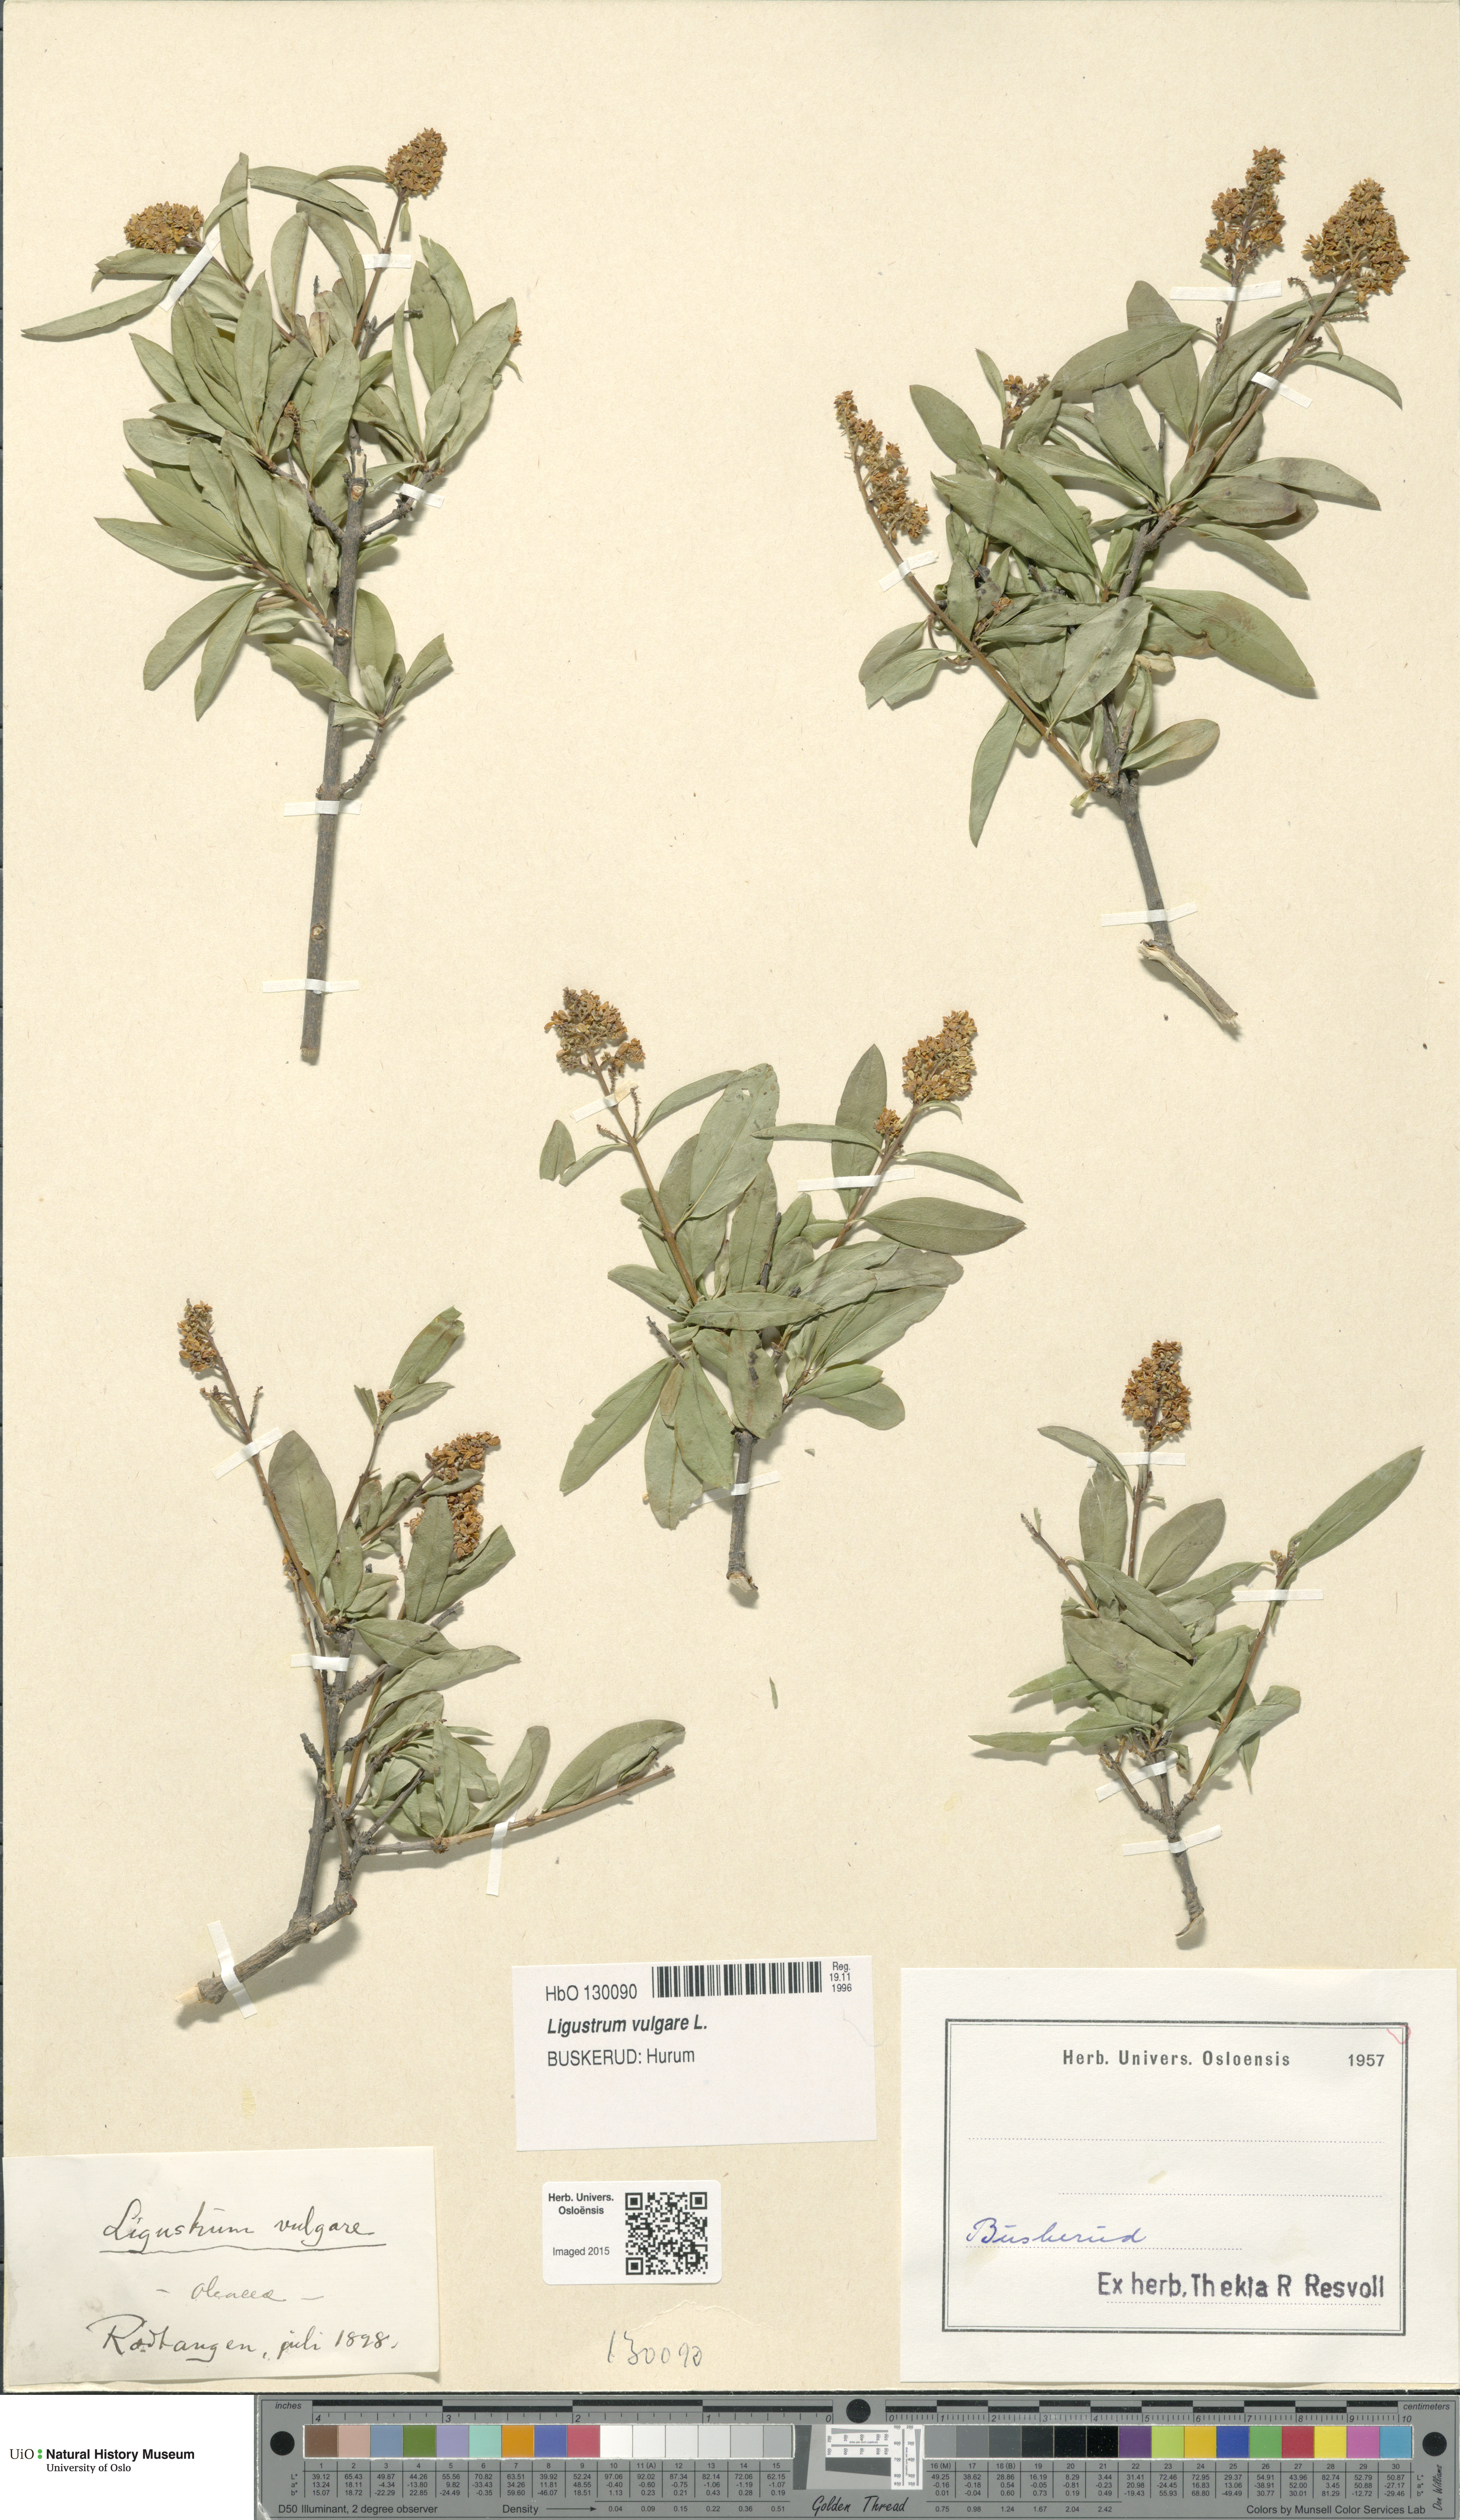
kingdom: Plantae
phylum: Tracheophyta
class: Magnoliopsida
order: Lamiales
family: Oleaceae
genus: Ligustrum
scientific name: Ligustrum vulgare
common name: Wild privet
